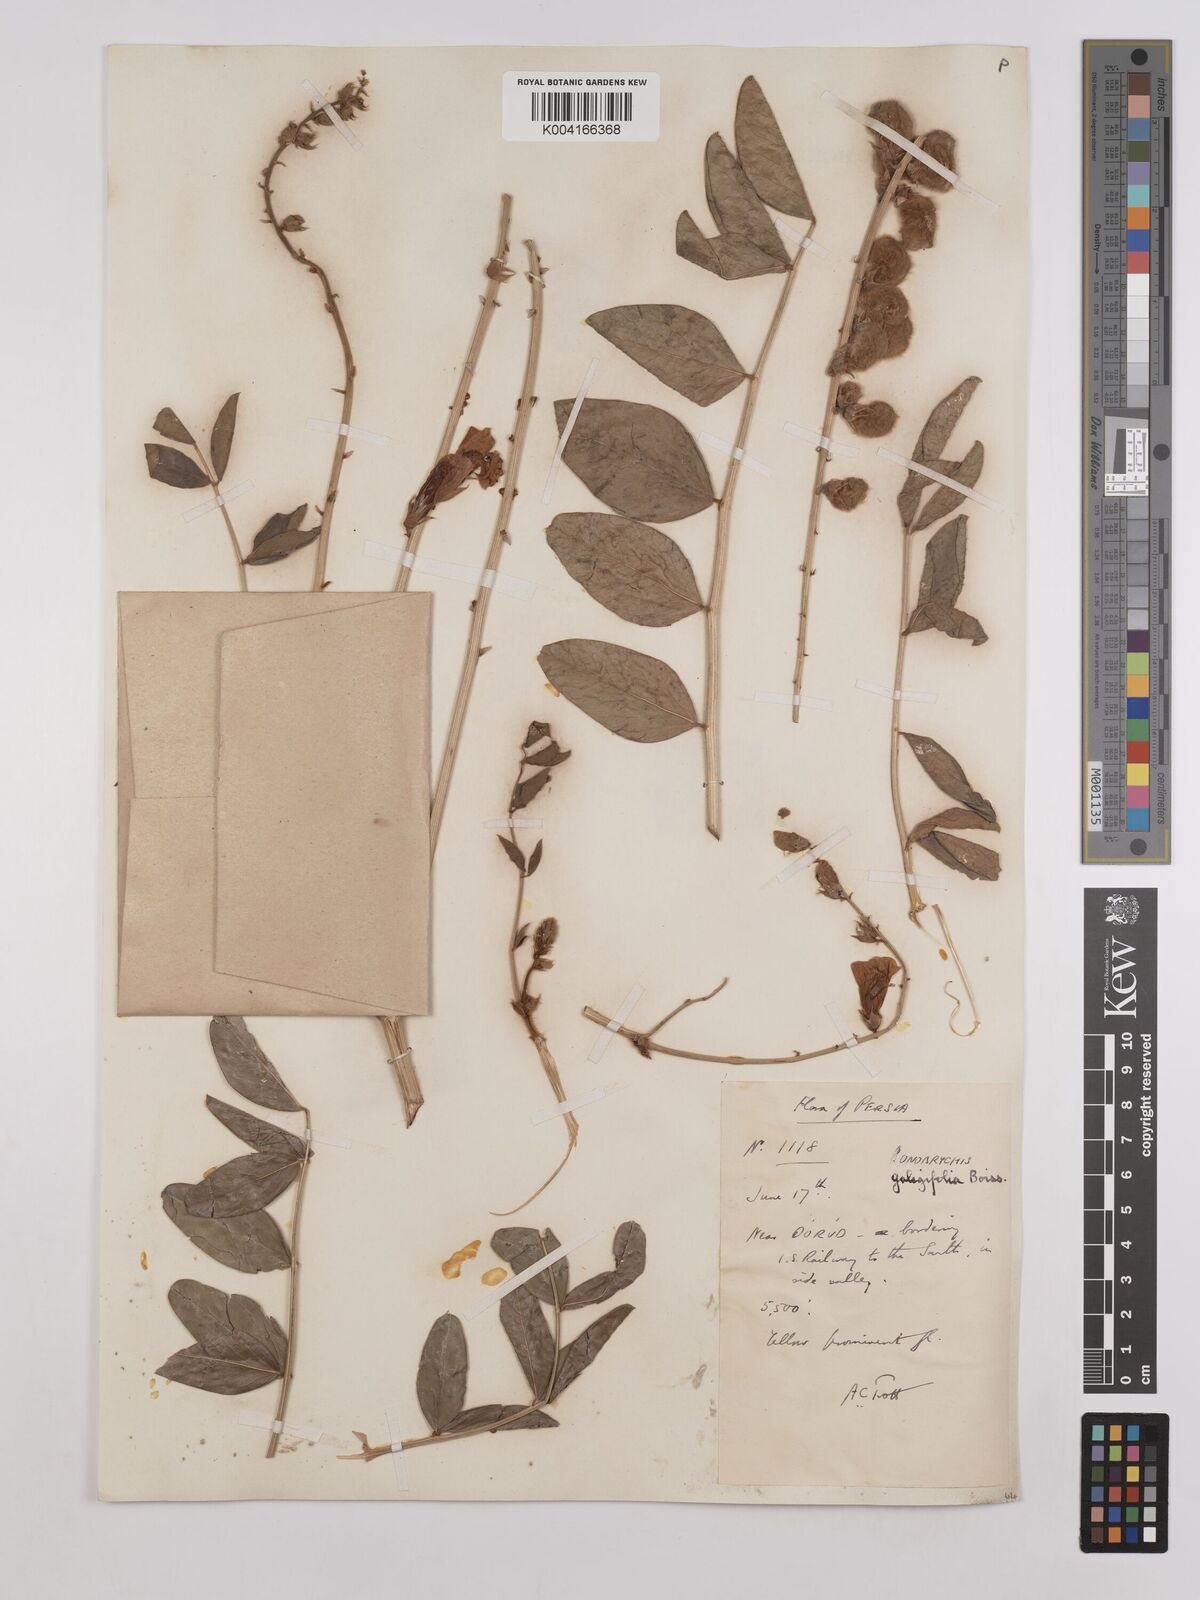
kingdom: Plantae
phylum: Tracheophyta
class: Magnoliopsida
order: Fabales
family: Fabaceae
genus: Onobrychis
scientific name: Onobrychis galegifolia
